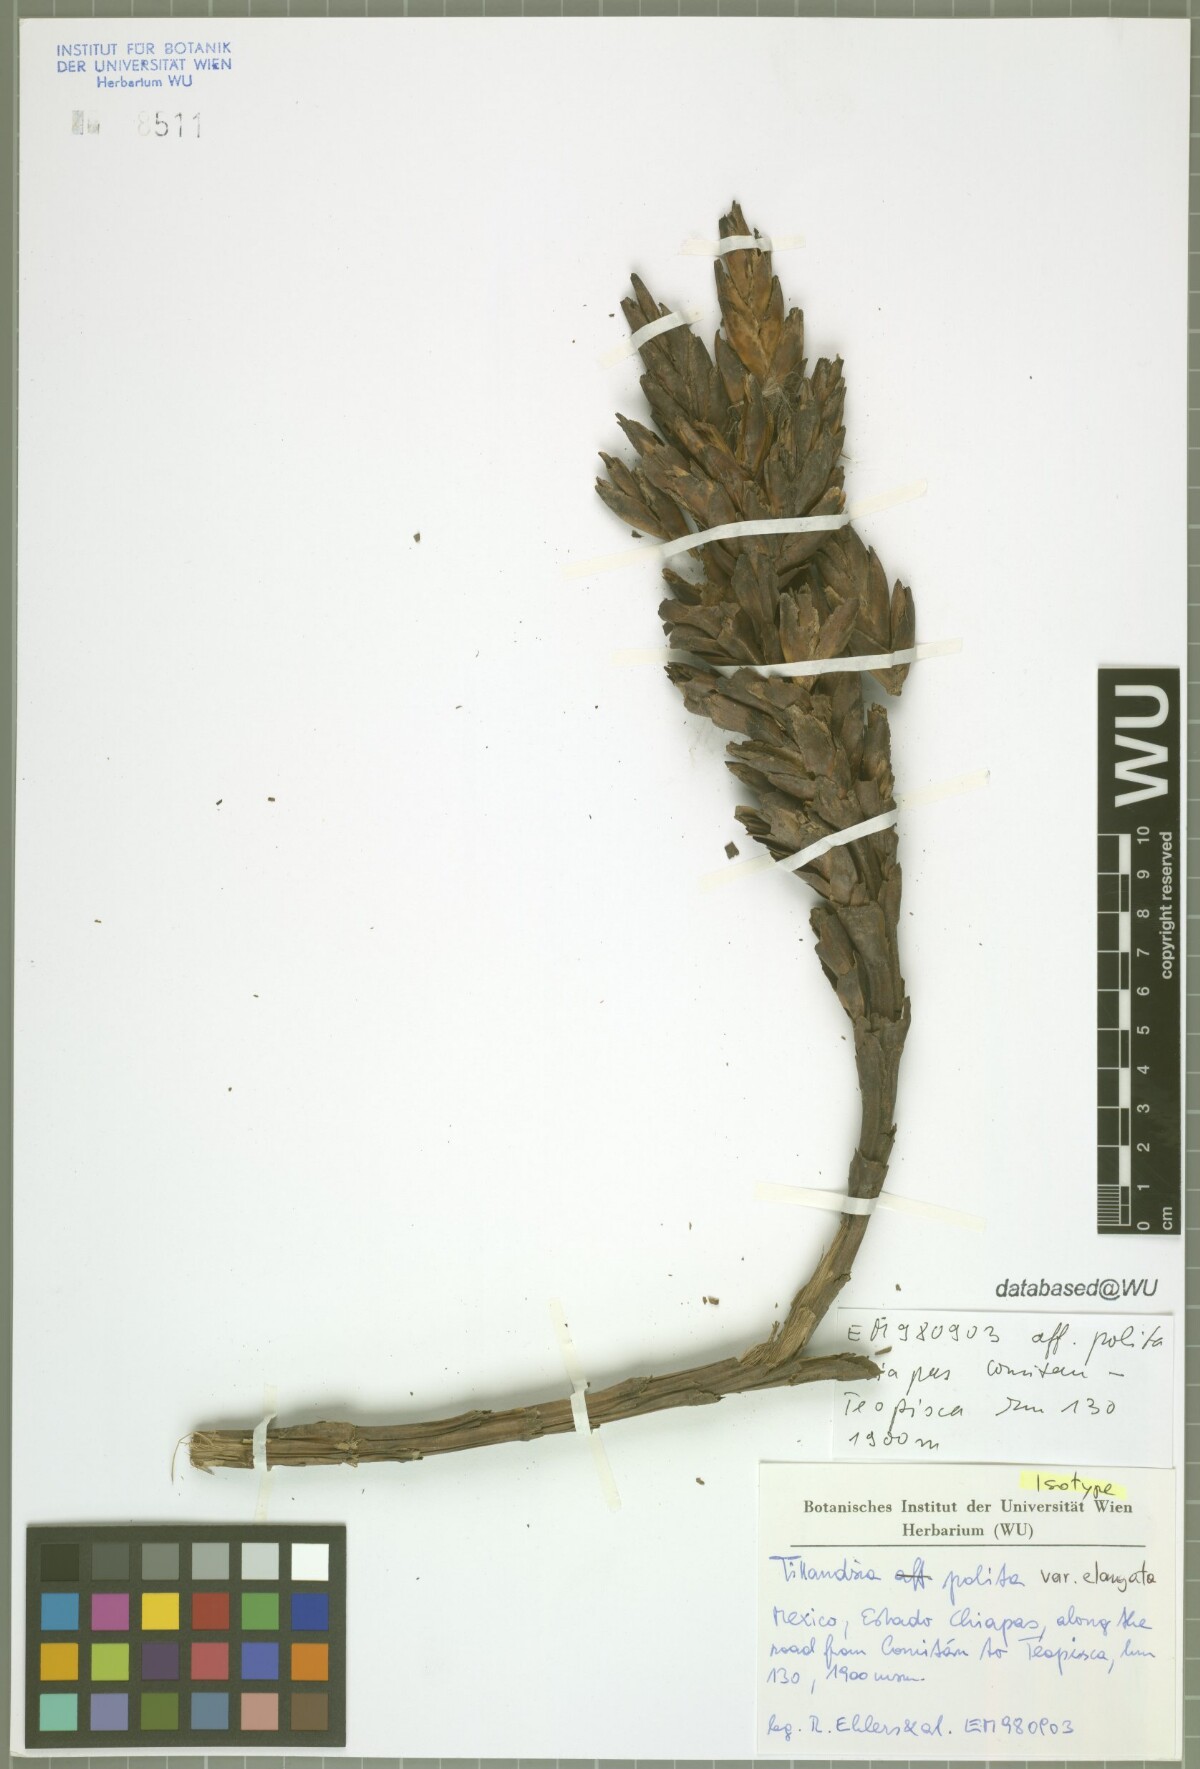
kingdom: Plantae
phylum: Tracheophyta
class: Liliopsida
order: Poales
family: Bromeliaceae
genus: Tillandsia
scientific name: Tillandsia polita
